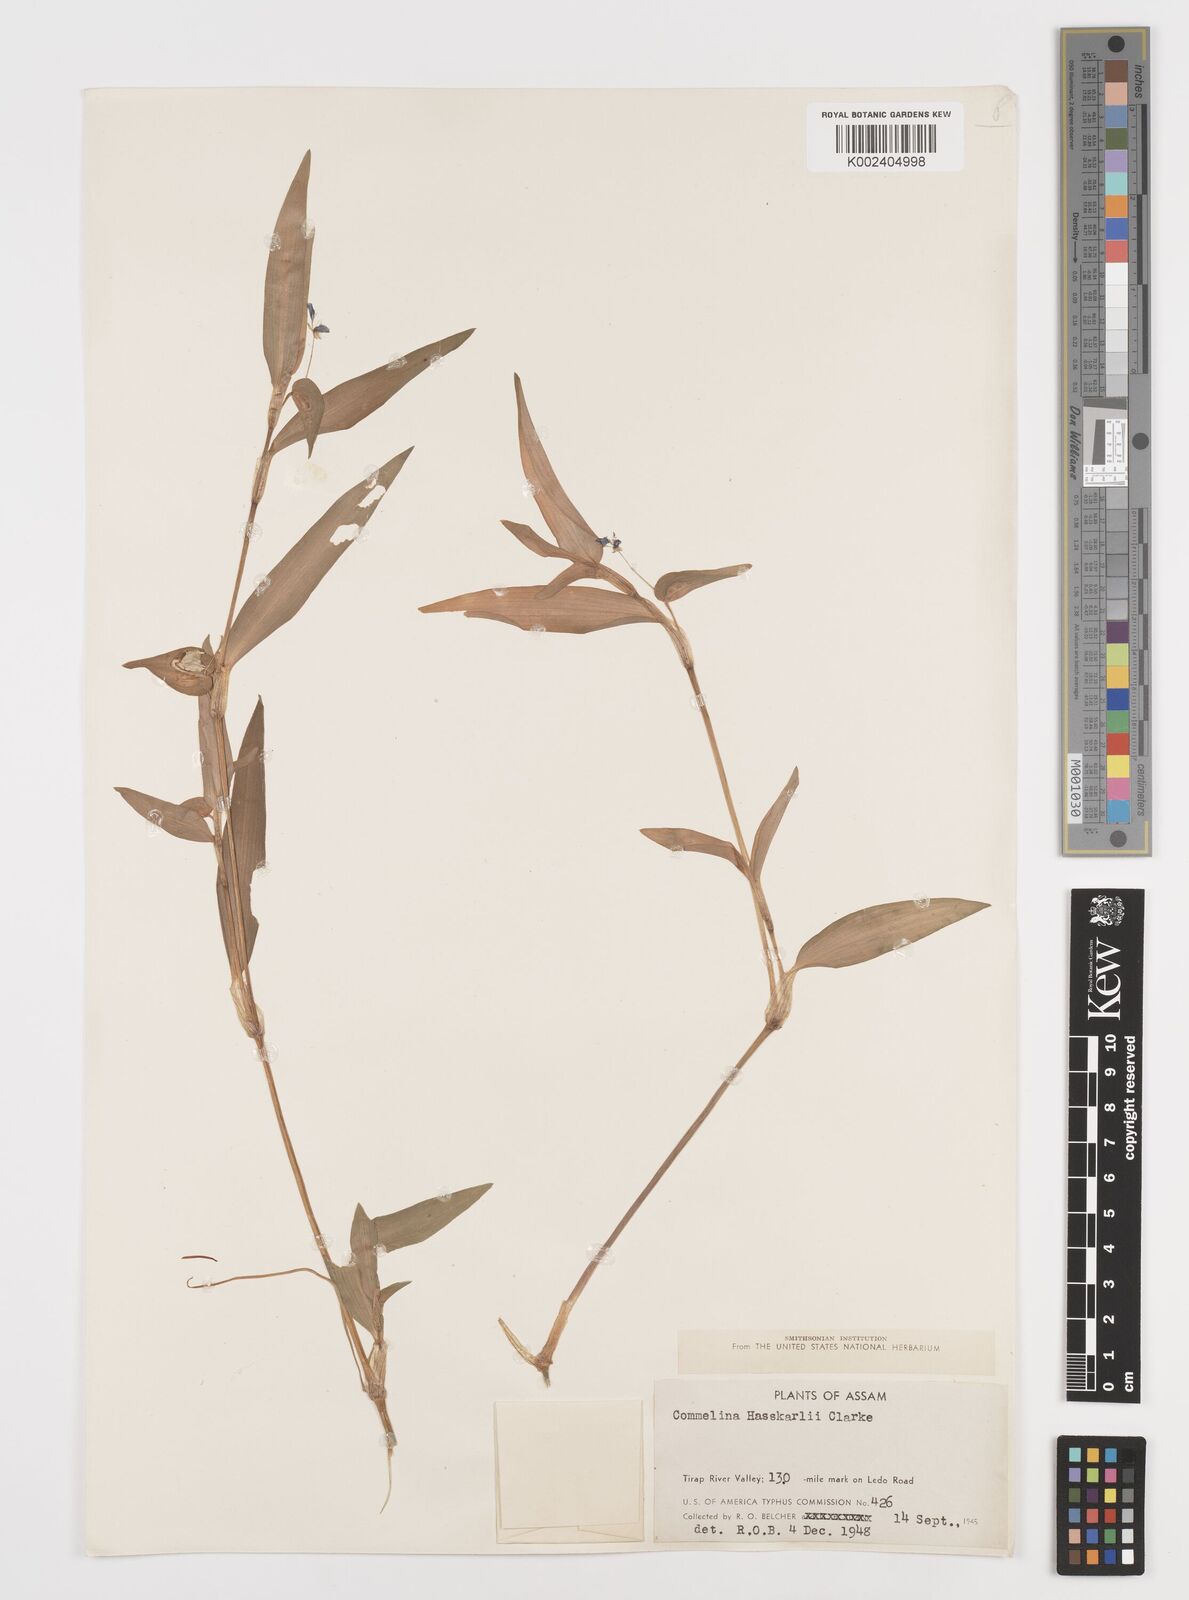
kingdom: Plantae
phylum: Tracheophyta
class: Liliopsida
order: Commelinales
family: Commelinaceae
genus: Commelina
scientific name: Commelina caroliniana
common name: Carolina dayflower
